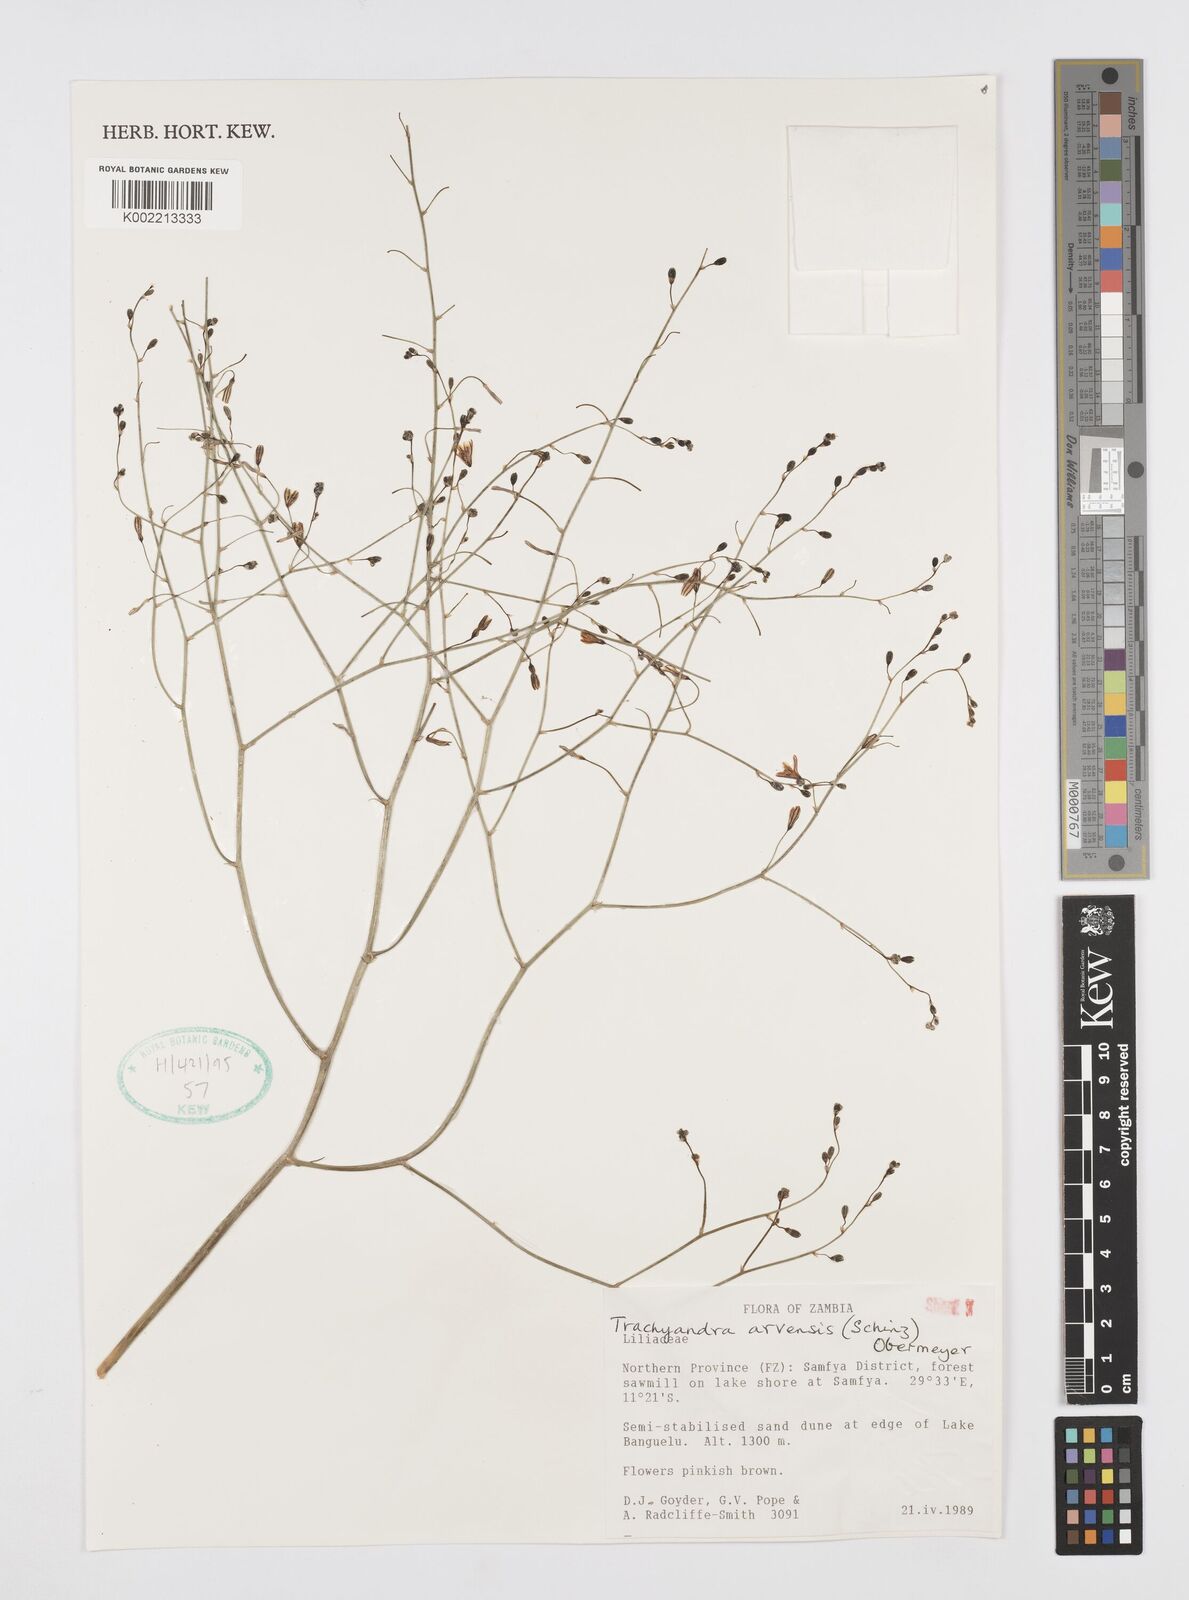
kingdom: Plantae
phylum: Tracheophyta
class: Liliopsida
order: Asparagales
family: Asphodelaceae
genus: Trachyandra
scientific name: Trachyandra arvensis
